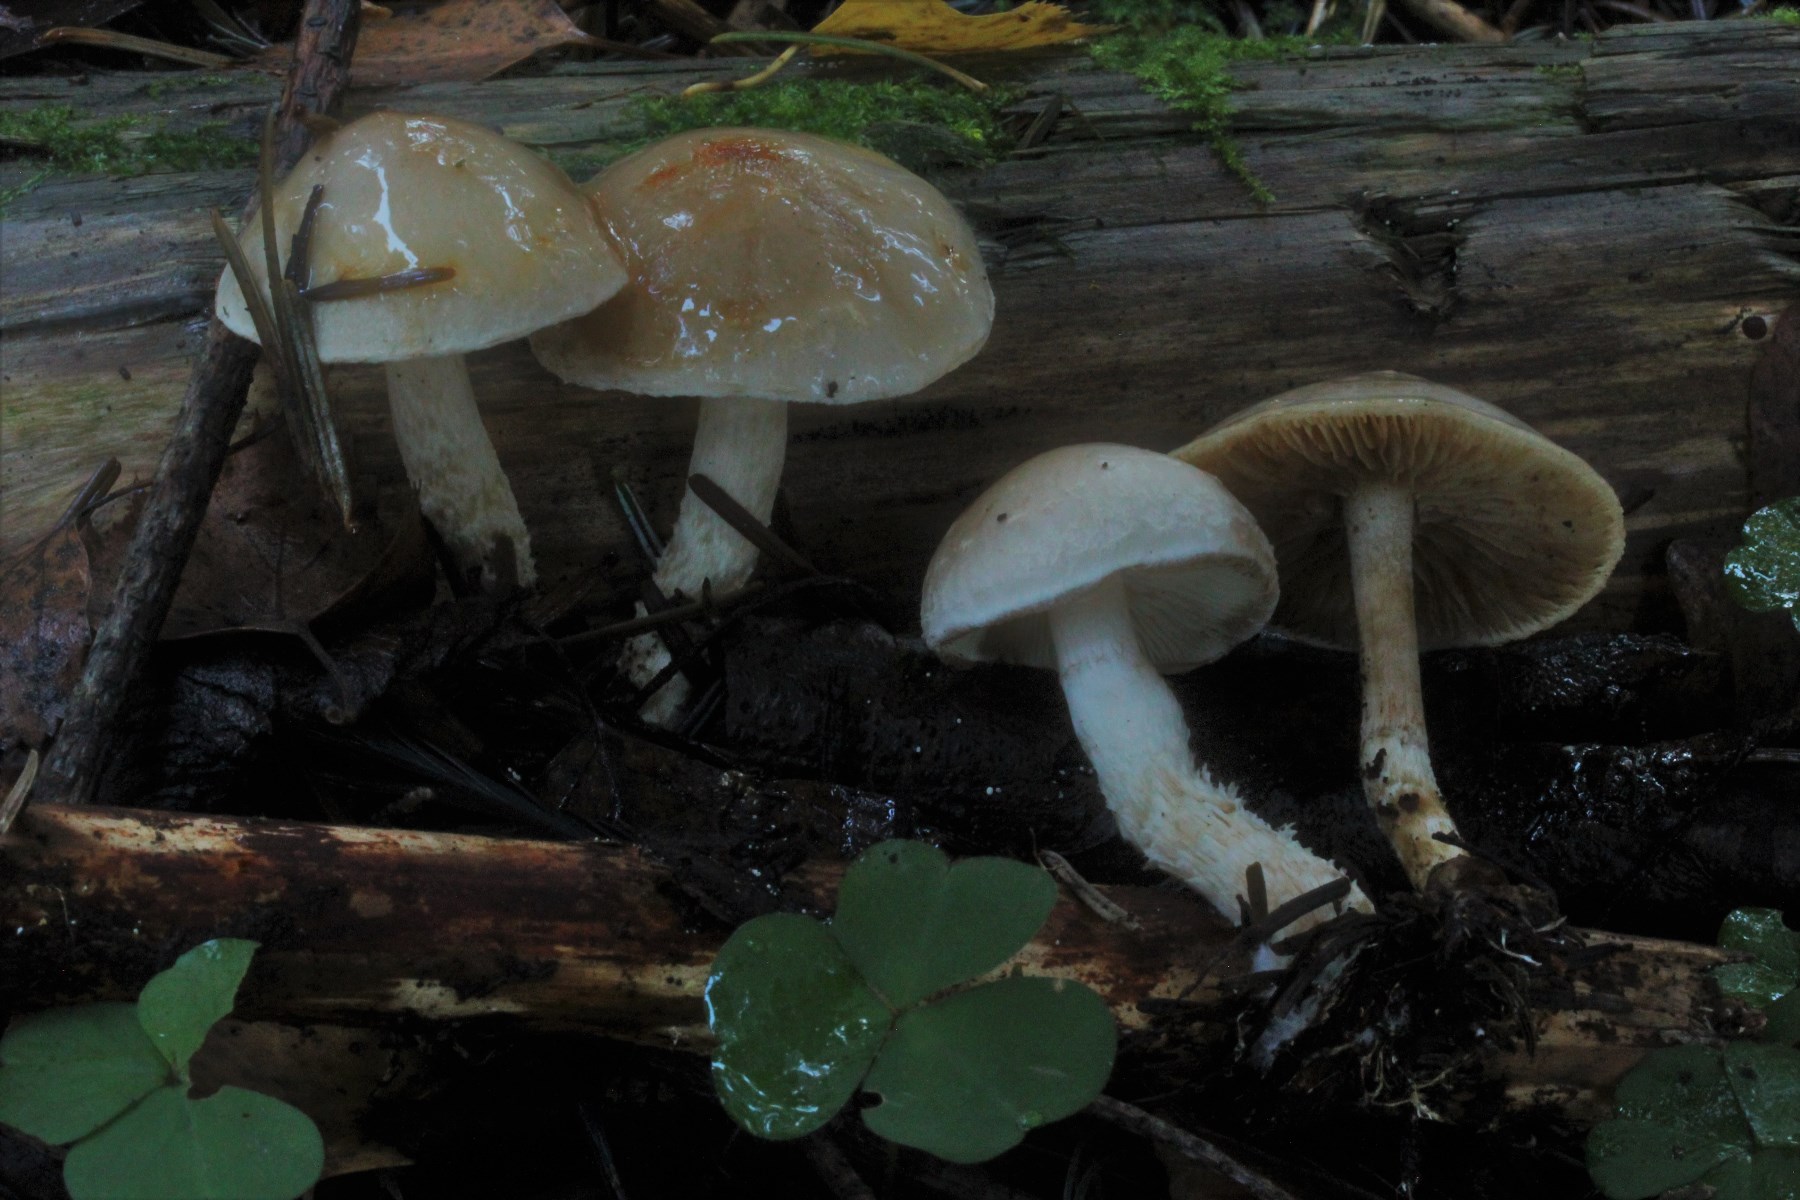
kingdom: Fungi
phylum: Basidiomycota
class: Agaricomycetes
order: Agaricales
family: Strophariaceae
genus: Pholiota
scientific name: Pholiota lenta
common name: løv-skælhat
